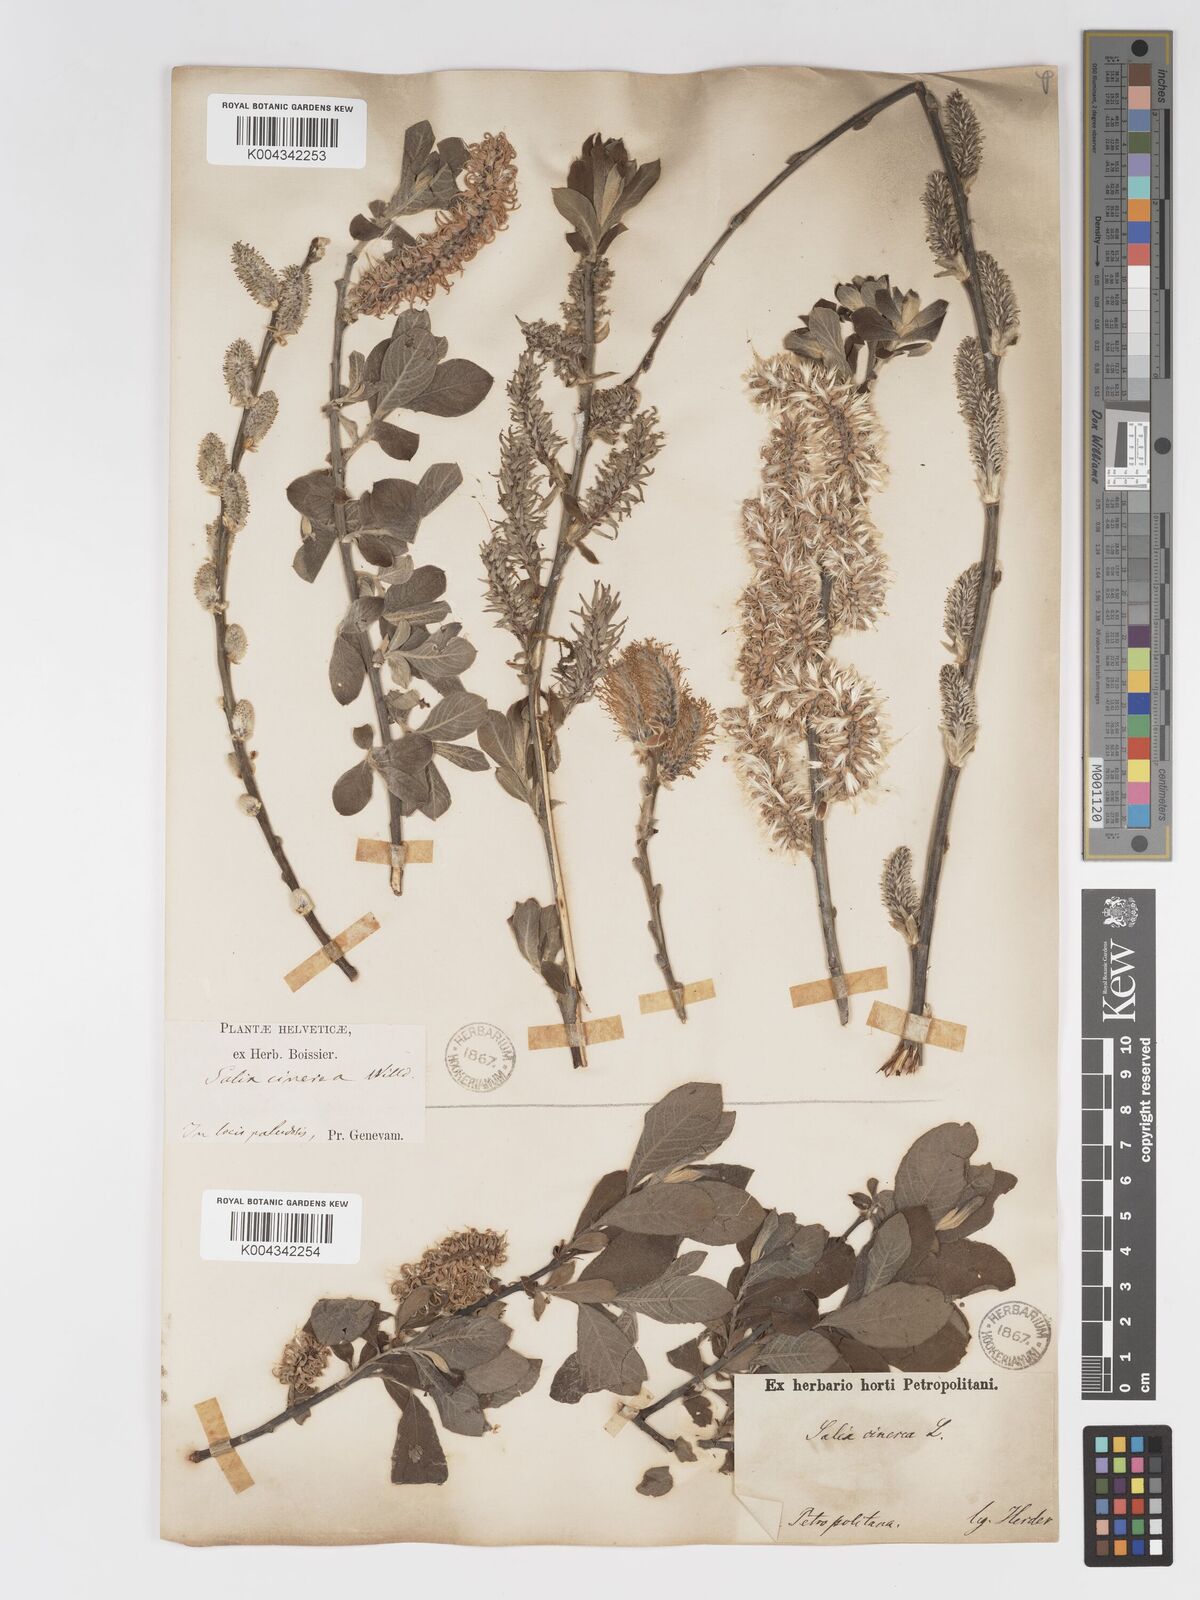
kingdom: Plantae
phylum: Tracheophyta
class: Magnoliopsida
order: Malpighiales
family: Salicaceae
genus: Salix
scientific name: Salix
